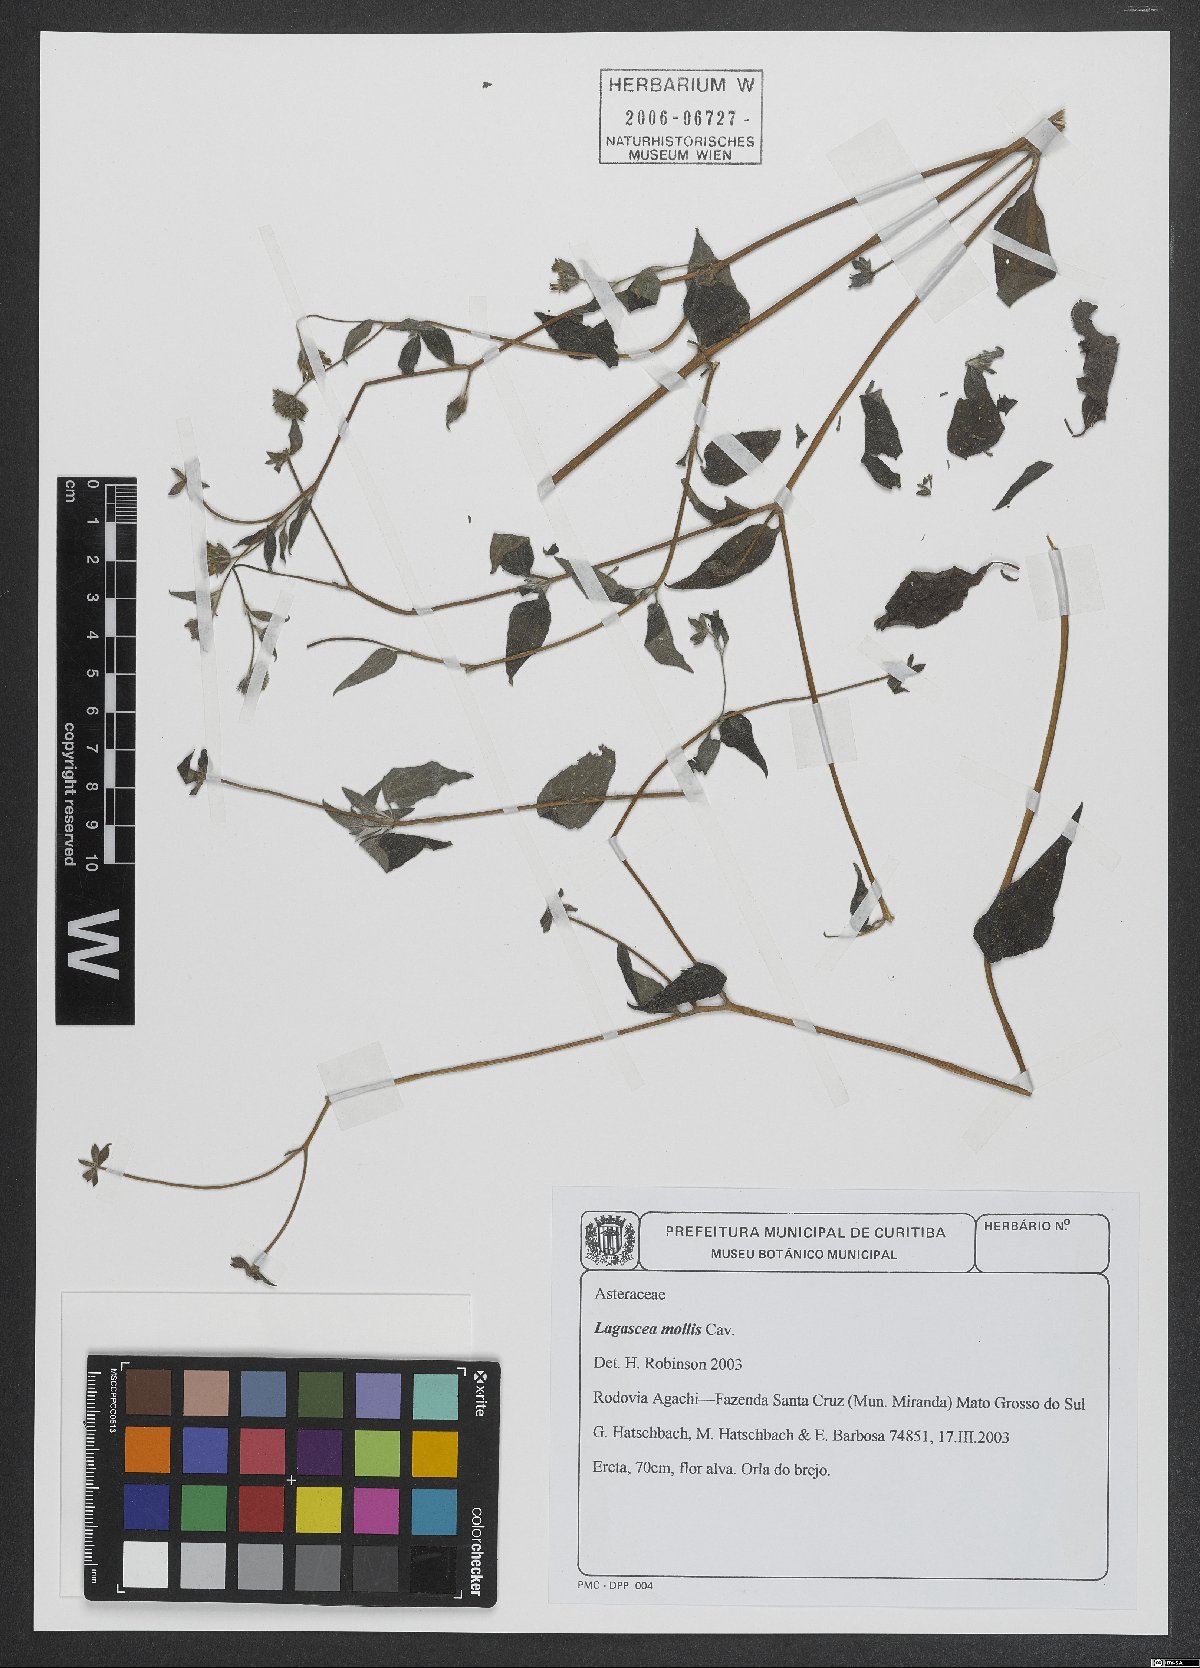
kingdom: Plantae
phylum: Tracheophyta
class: Magnoliopsida
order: Asterales
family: Asteraceae
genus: Lagascea
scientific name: Lagascea mollis
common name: Silkleaf
